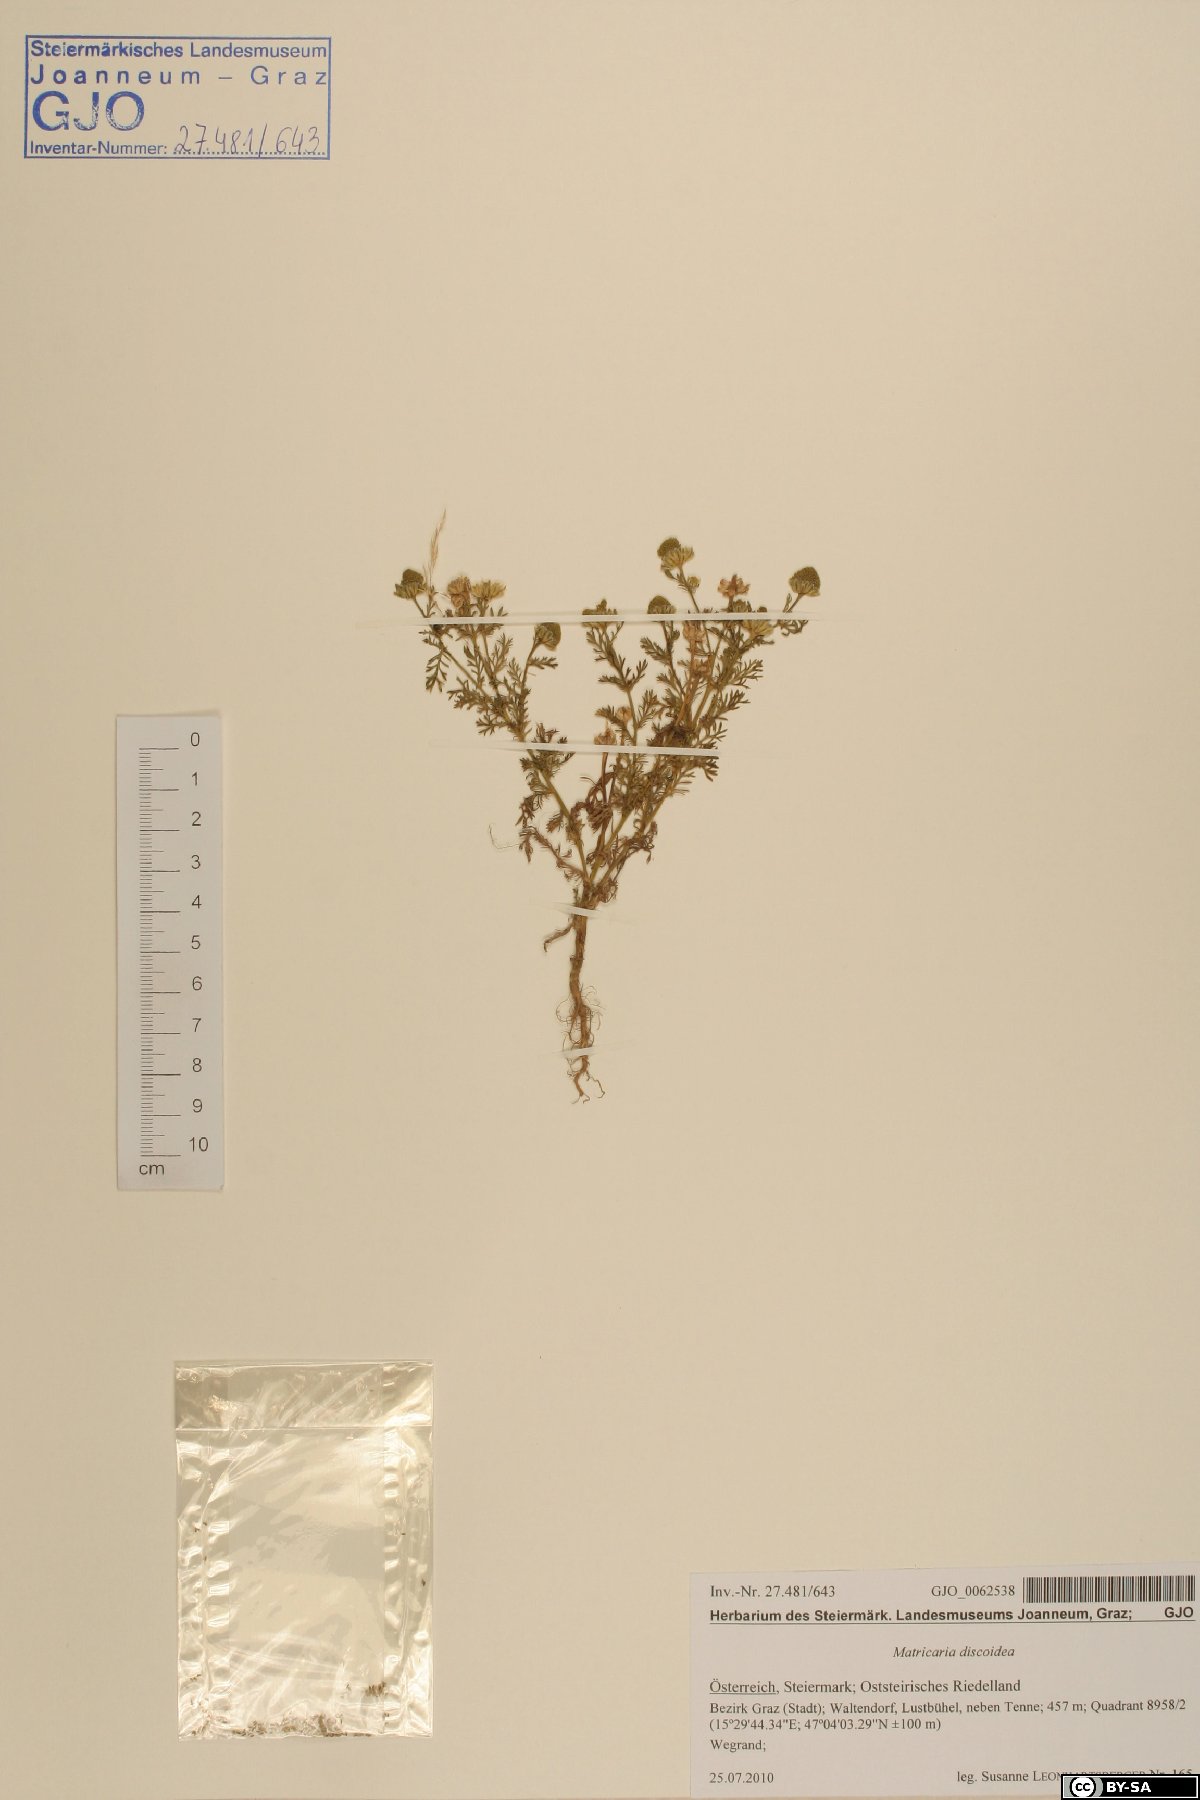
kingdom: Plantae
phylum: Tracheophyta
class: Magnoliopsida
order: Asterales
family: Asteraceae
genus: Matricaria
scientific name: Matricaria discoidea
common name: Disc mayweed
